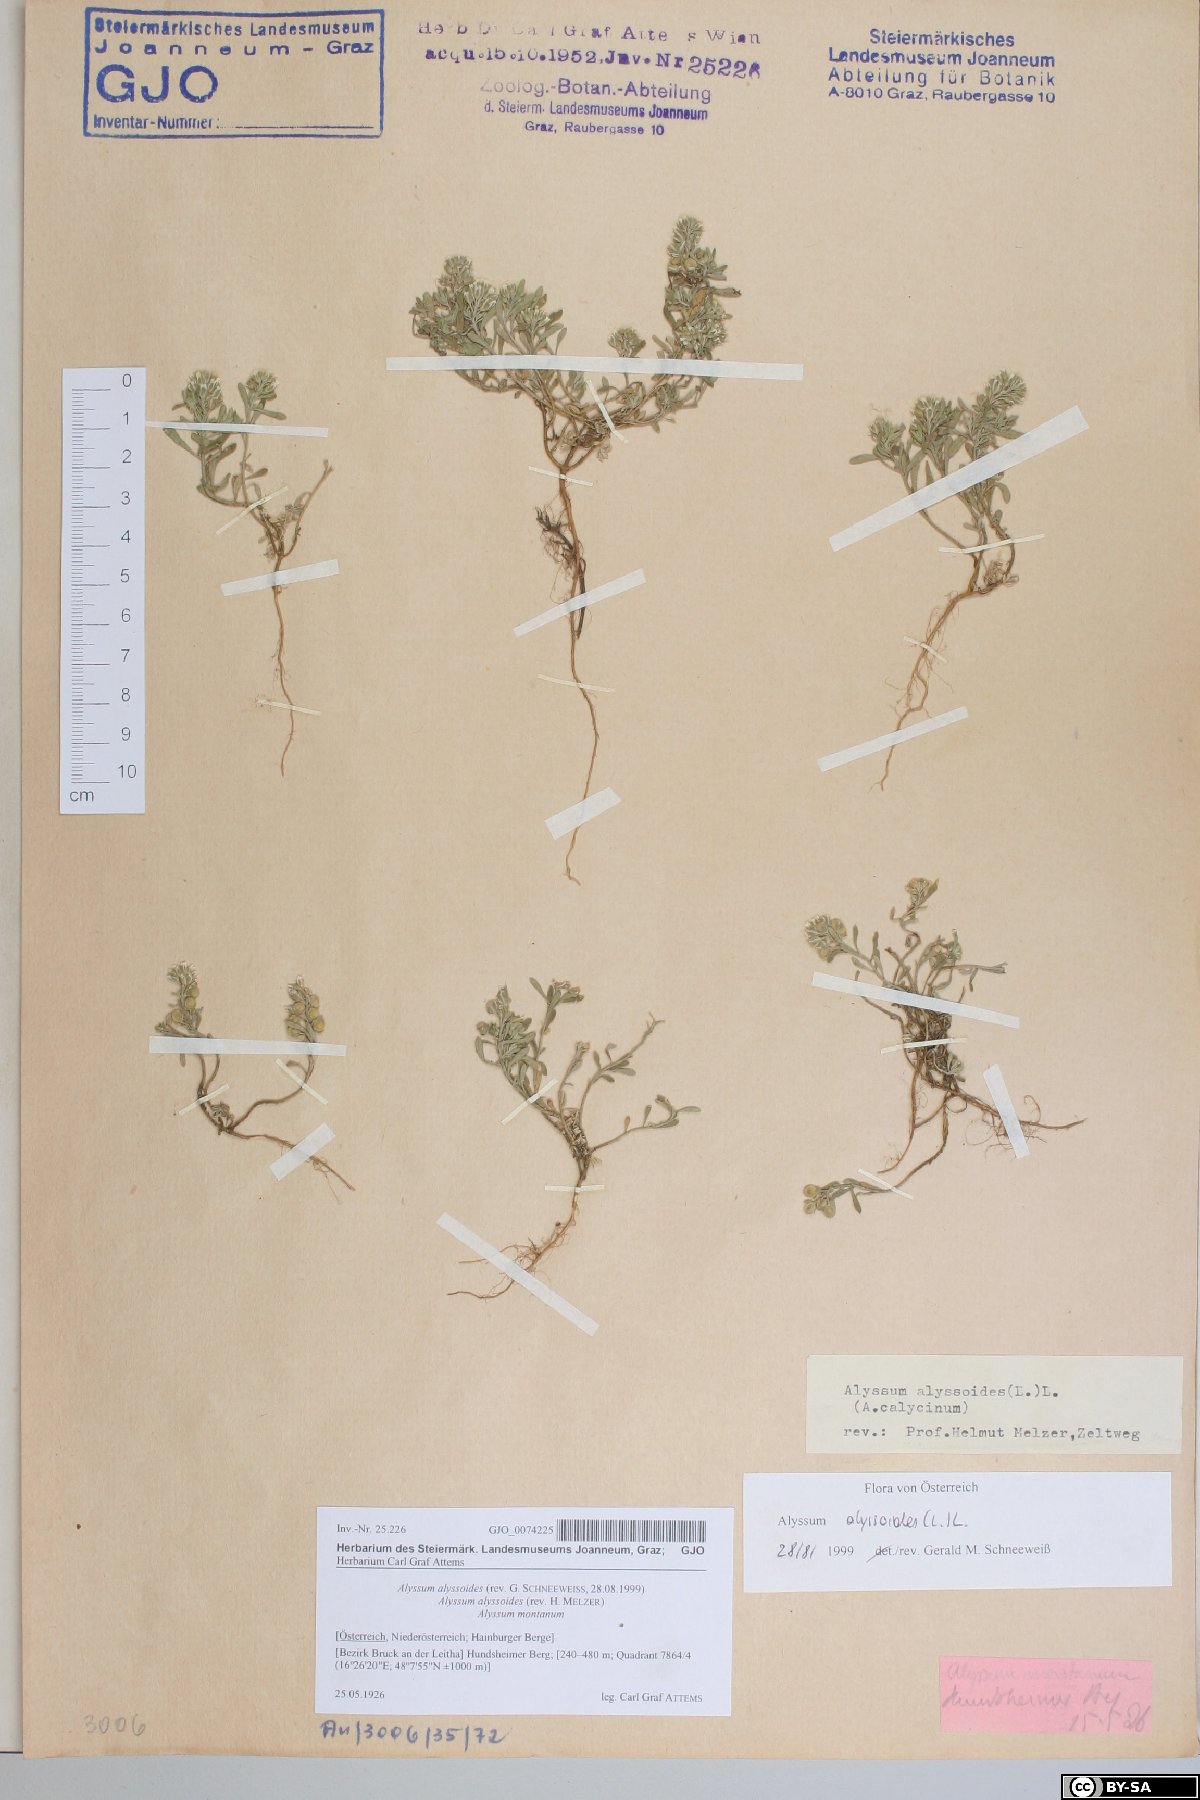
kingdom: Plantae
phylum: Tracheophyta
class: Magnoliopsida
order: Brassicales
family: Brassicaceae
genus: Alyssum
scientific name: Alyssum alyssoides
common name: Small alison
